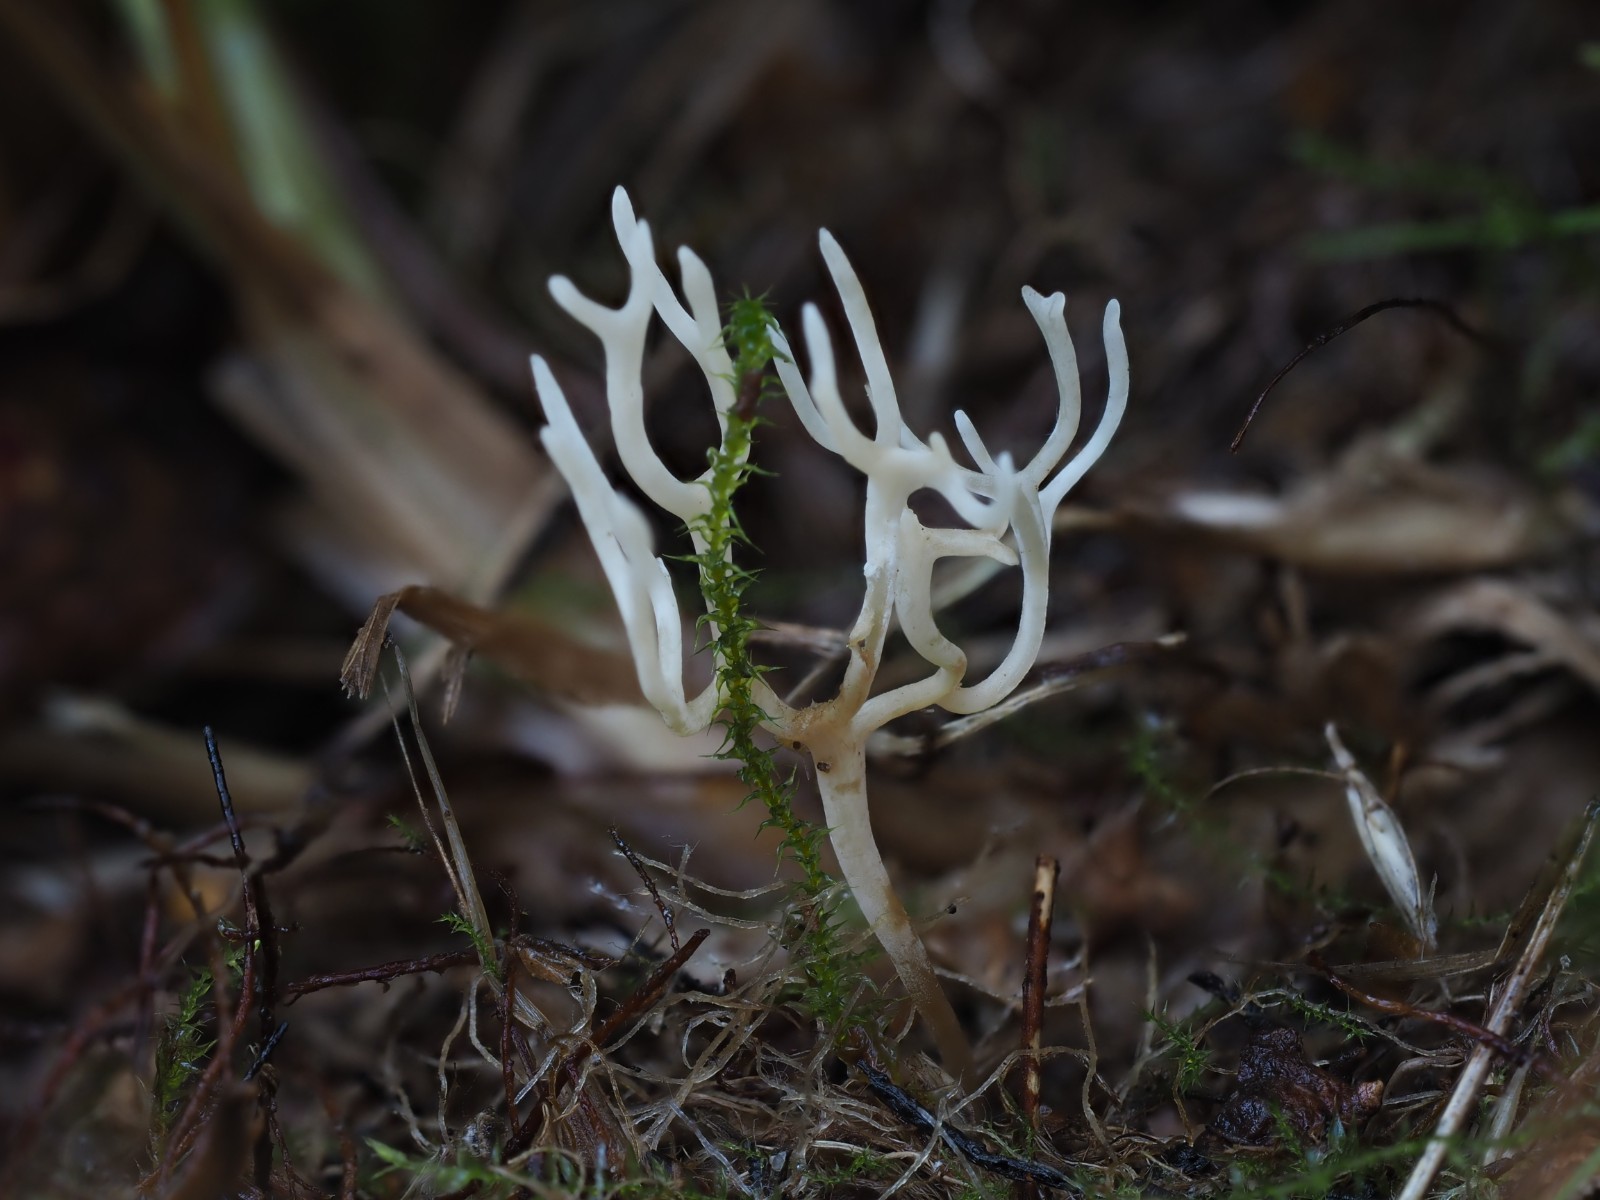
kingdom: Fungi
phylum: Basidiomycota
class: Agaricomycetes
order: Agaricales
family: Clavariaceae
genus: Ramariopsis
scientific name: Ramariopsis
